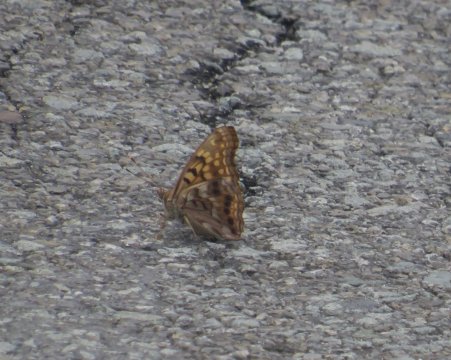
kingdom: Animalia
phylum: Arthropoda
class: Insecta
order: Lepidoptera
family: Nymphalidae
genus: Asterocampa
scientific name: Asterocampa clyton
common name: Tawny Emperor
